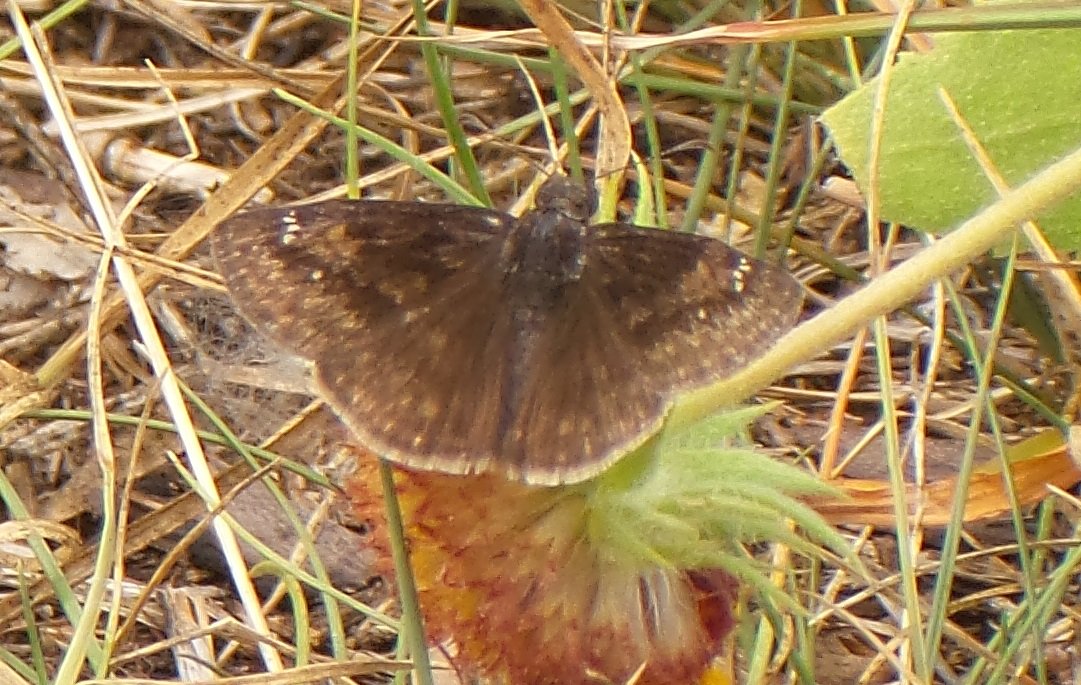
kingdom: Animalia
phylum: Arthropoda
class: Insecta
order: Lepidoptera
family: Hesperiidae
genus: Gesta
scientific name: Gesta
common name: Wild Indigo Duskywing
